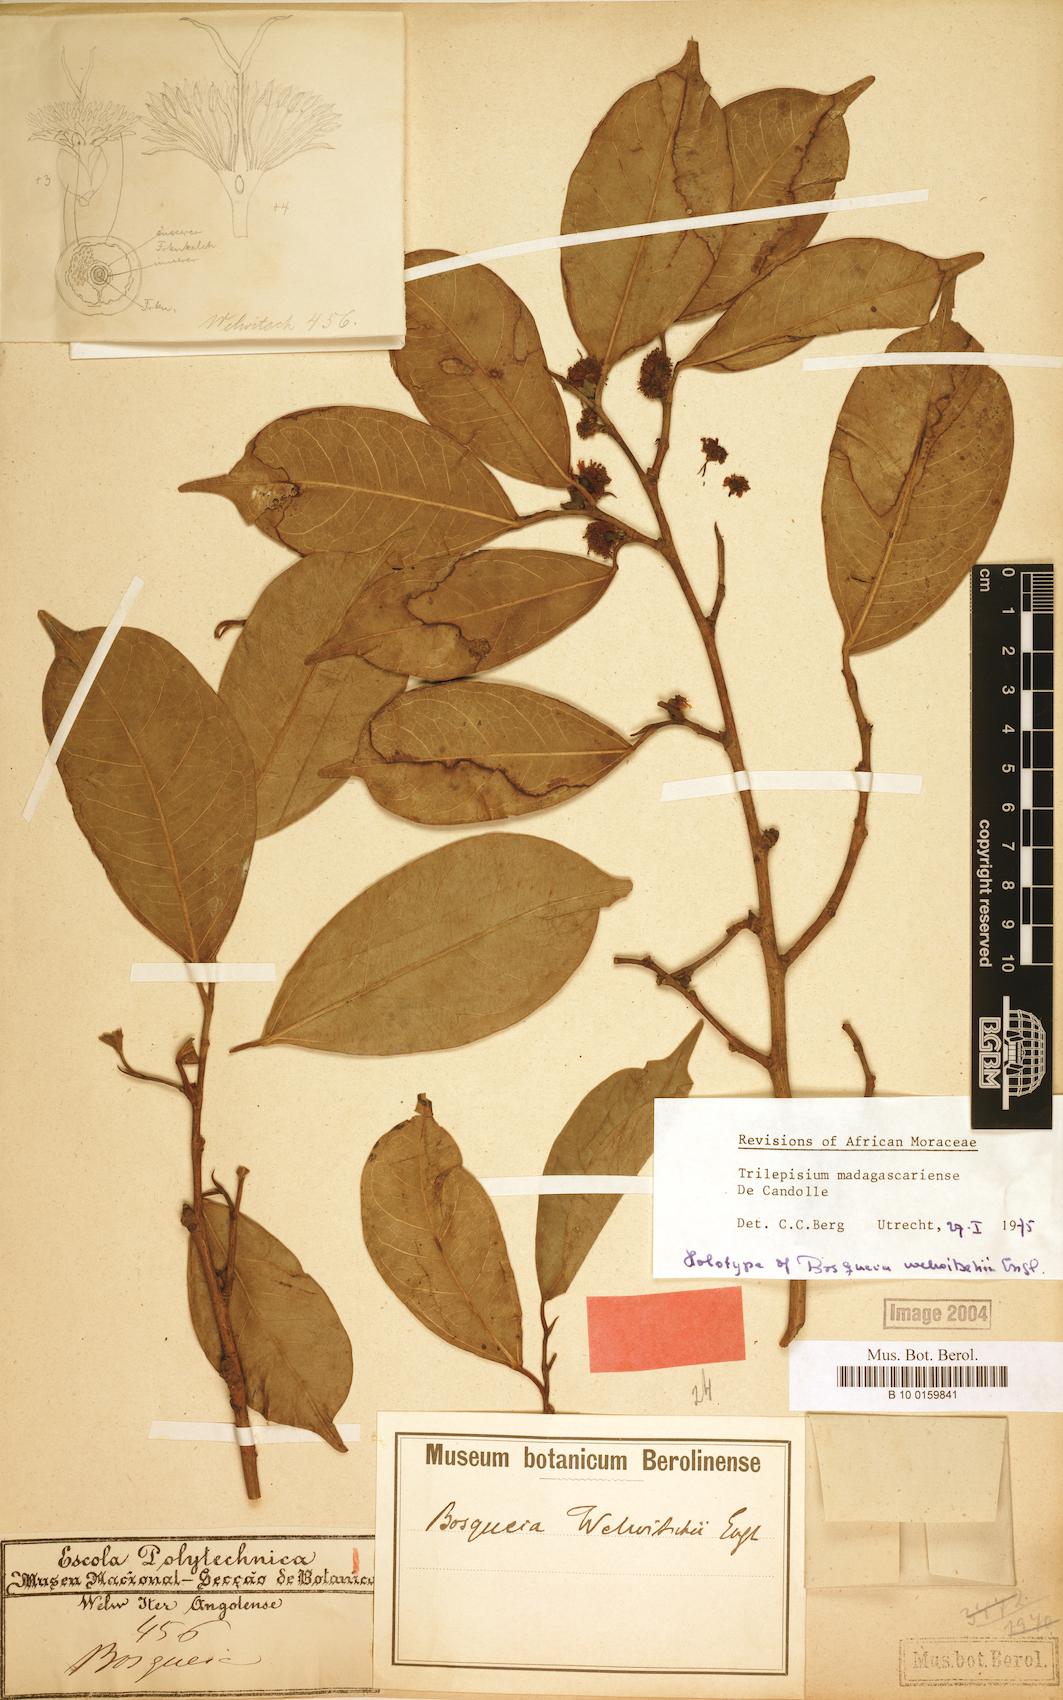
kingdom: Plantae
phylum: Tracheophyta
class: Magnoliopsida
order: Rosales
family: Moraceae
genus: Trilepisium
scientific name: Trilepisium madagascariense
